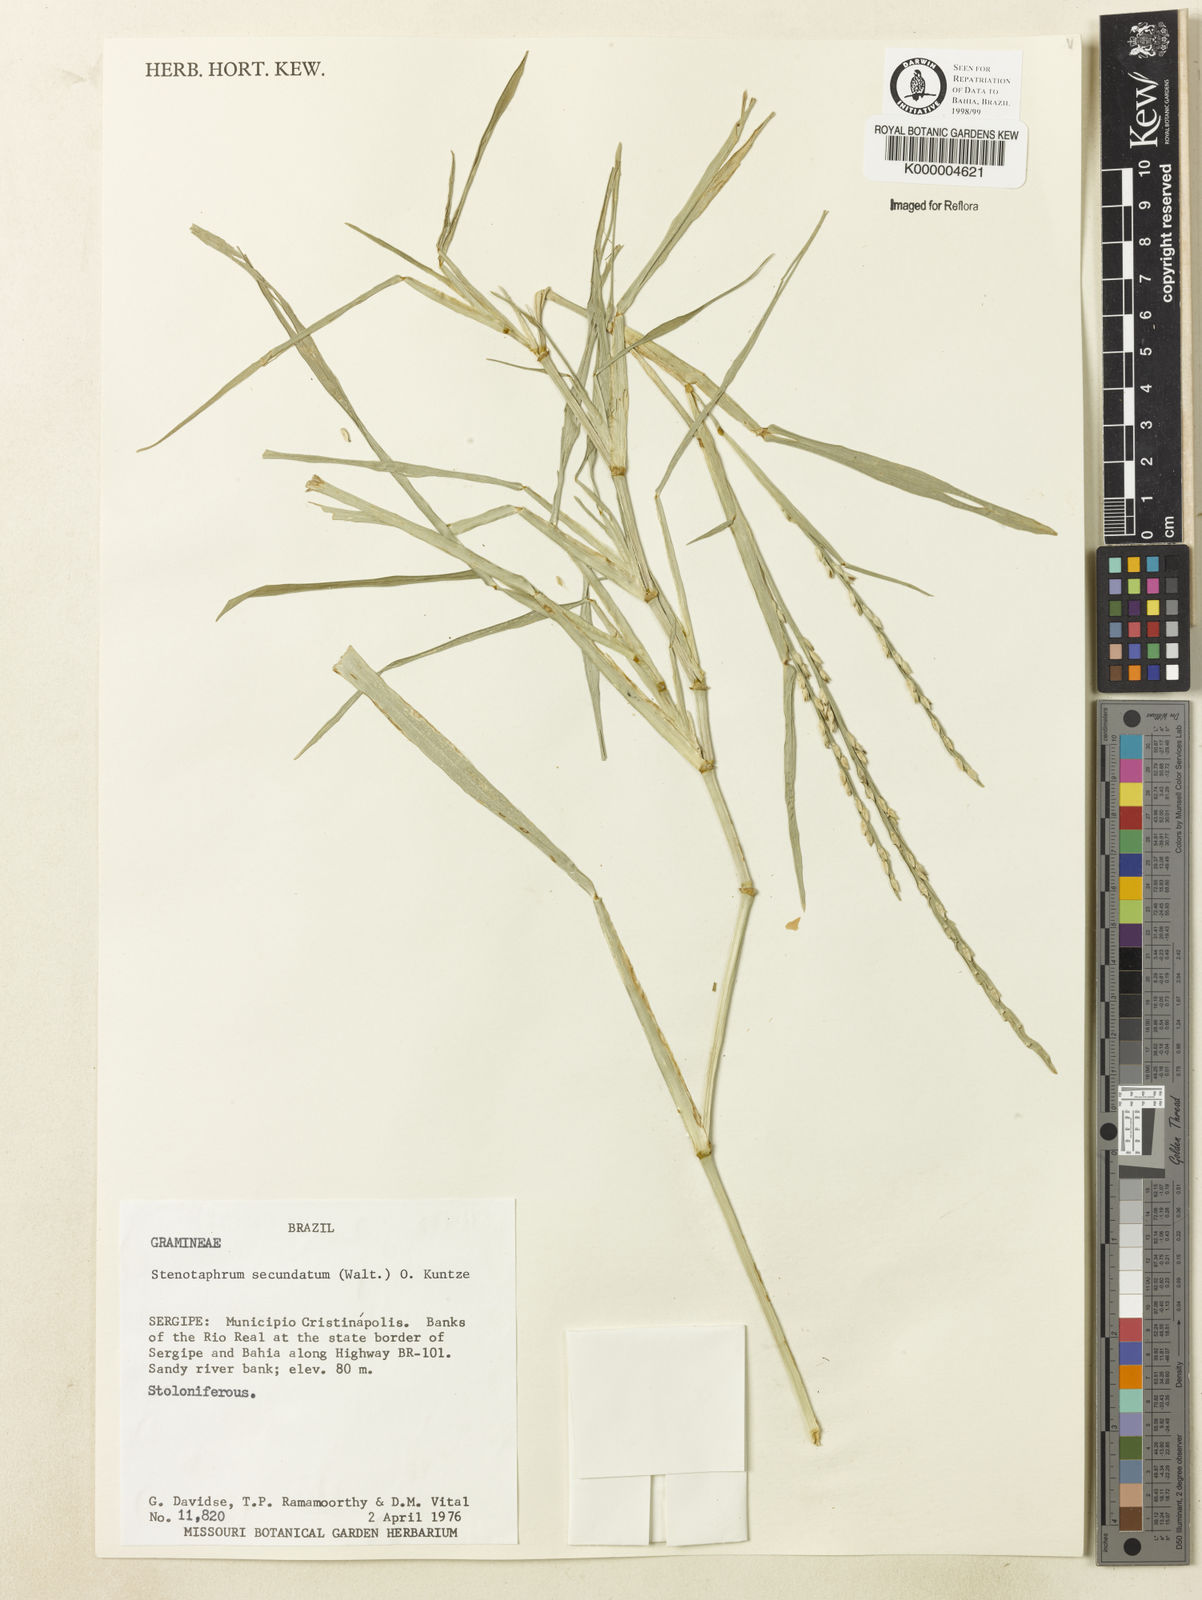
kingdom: Plantae
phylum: Tracheophyta
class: Liliopsida
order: Poales
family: Poaceae
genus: Stenotaphrum
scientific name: Stenotaphrum secundatum
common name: St. augustine grass
